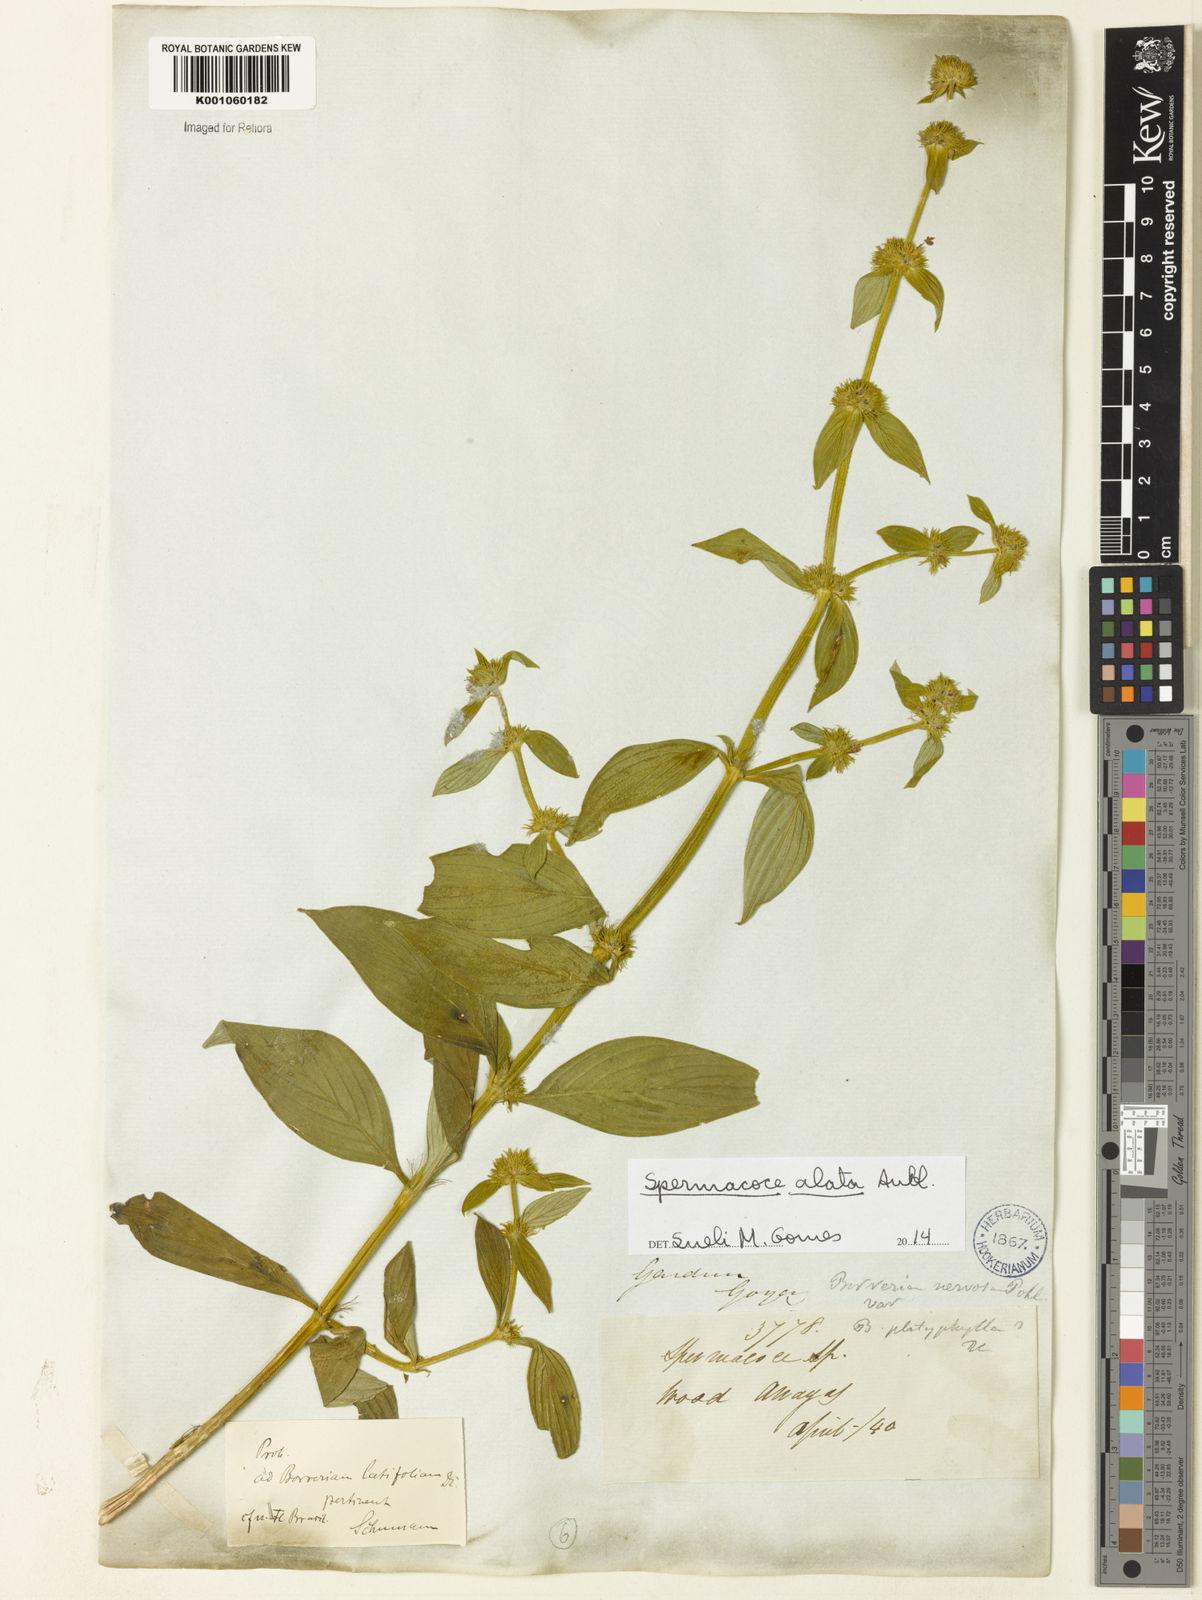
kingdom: Plantae
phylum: Tracheophyta
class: Magnoliopsida
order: Gentianales
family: Rubiaceae
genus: Spermacoce
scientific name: Spermacoce
